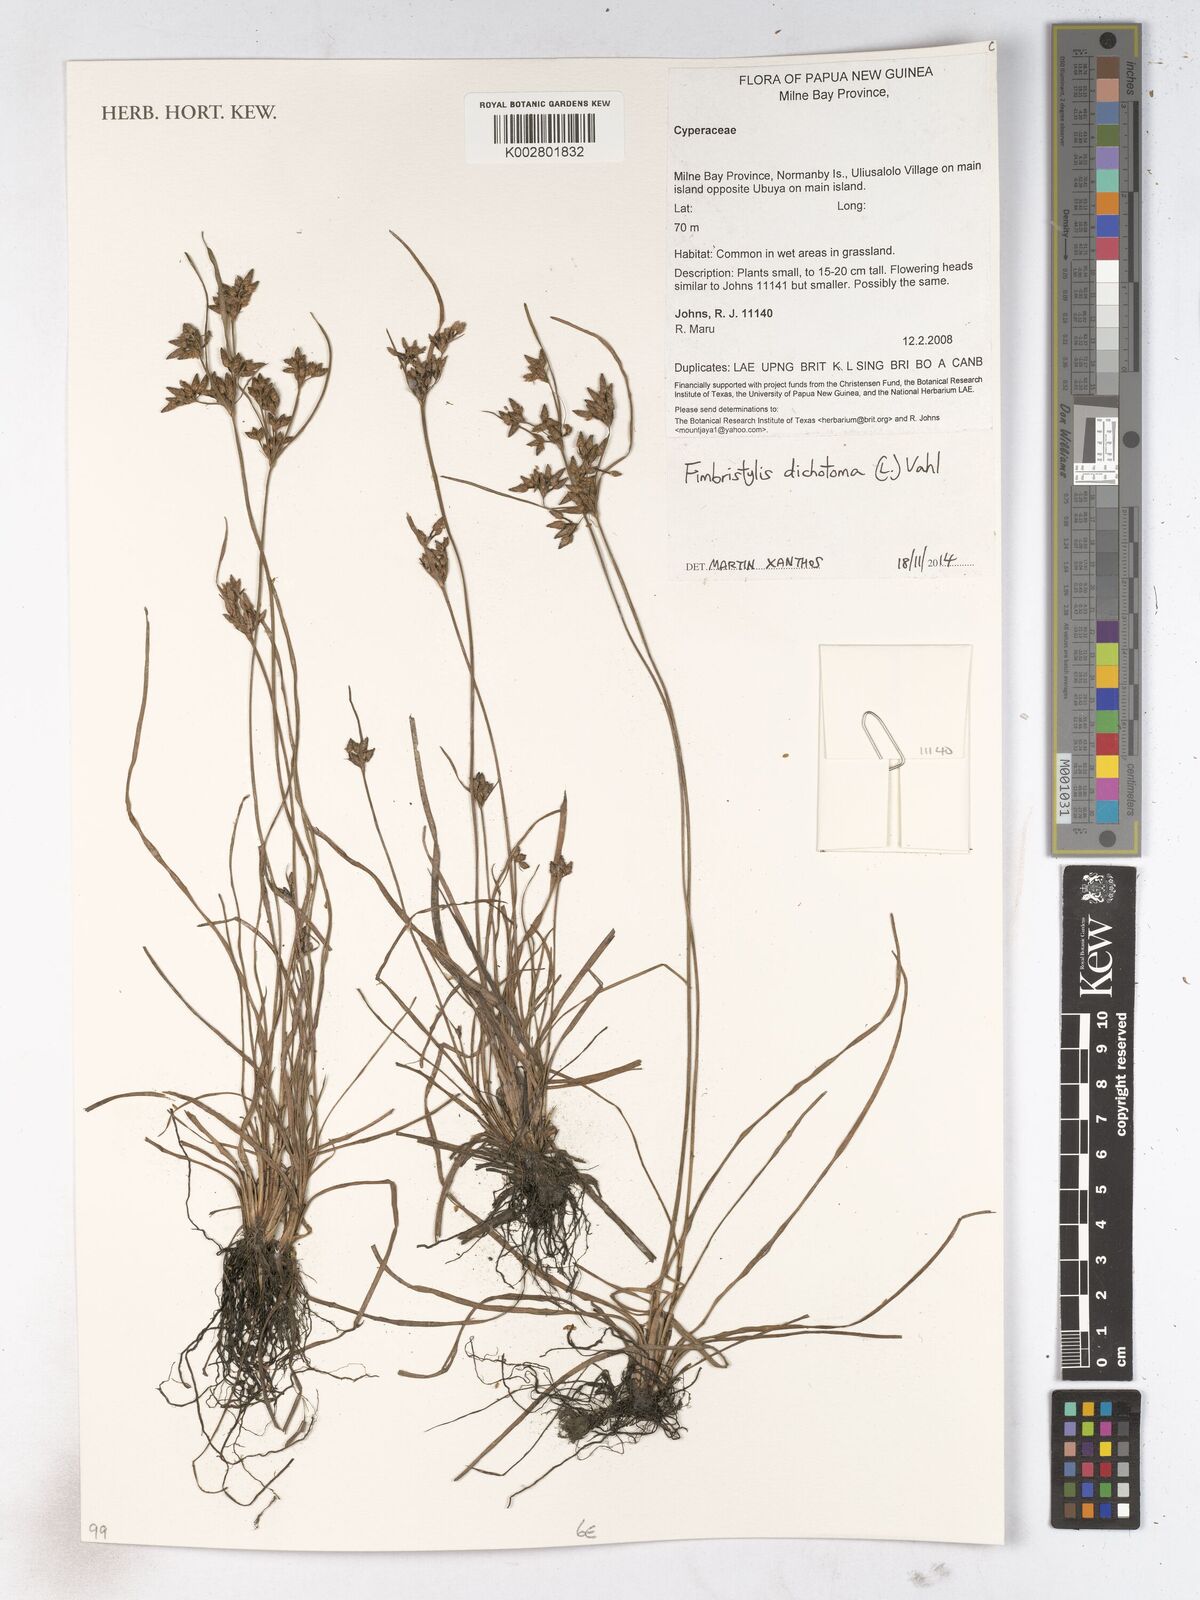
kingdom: Plantae
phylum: Tracheophyta
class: Liliopsida
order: Poales
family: Cyperaceae
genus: Fimbristylis
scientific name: Fimbristylis dichotoma
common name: Forked fimbry
